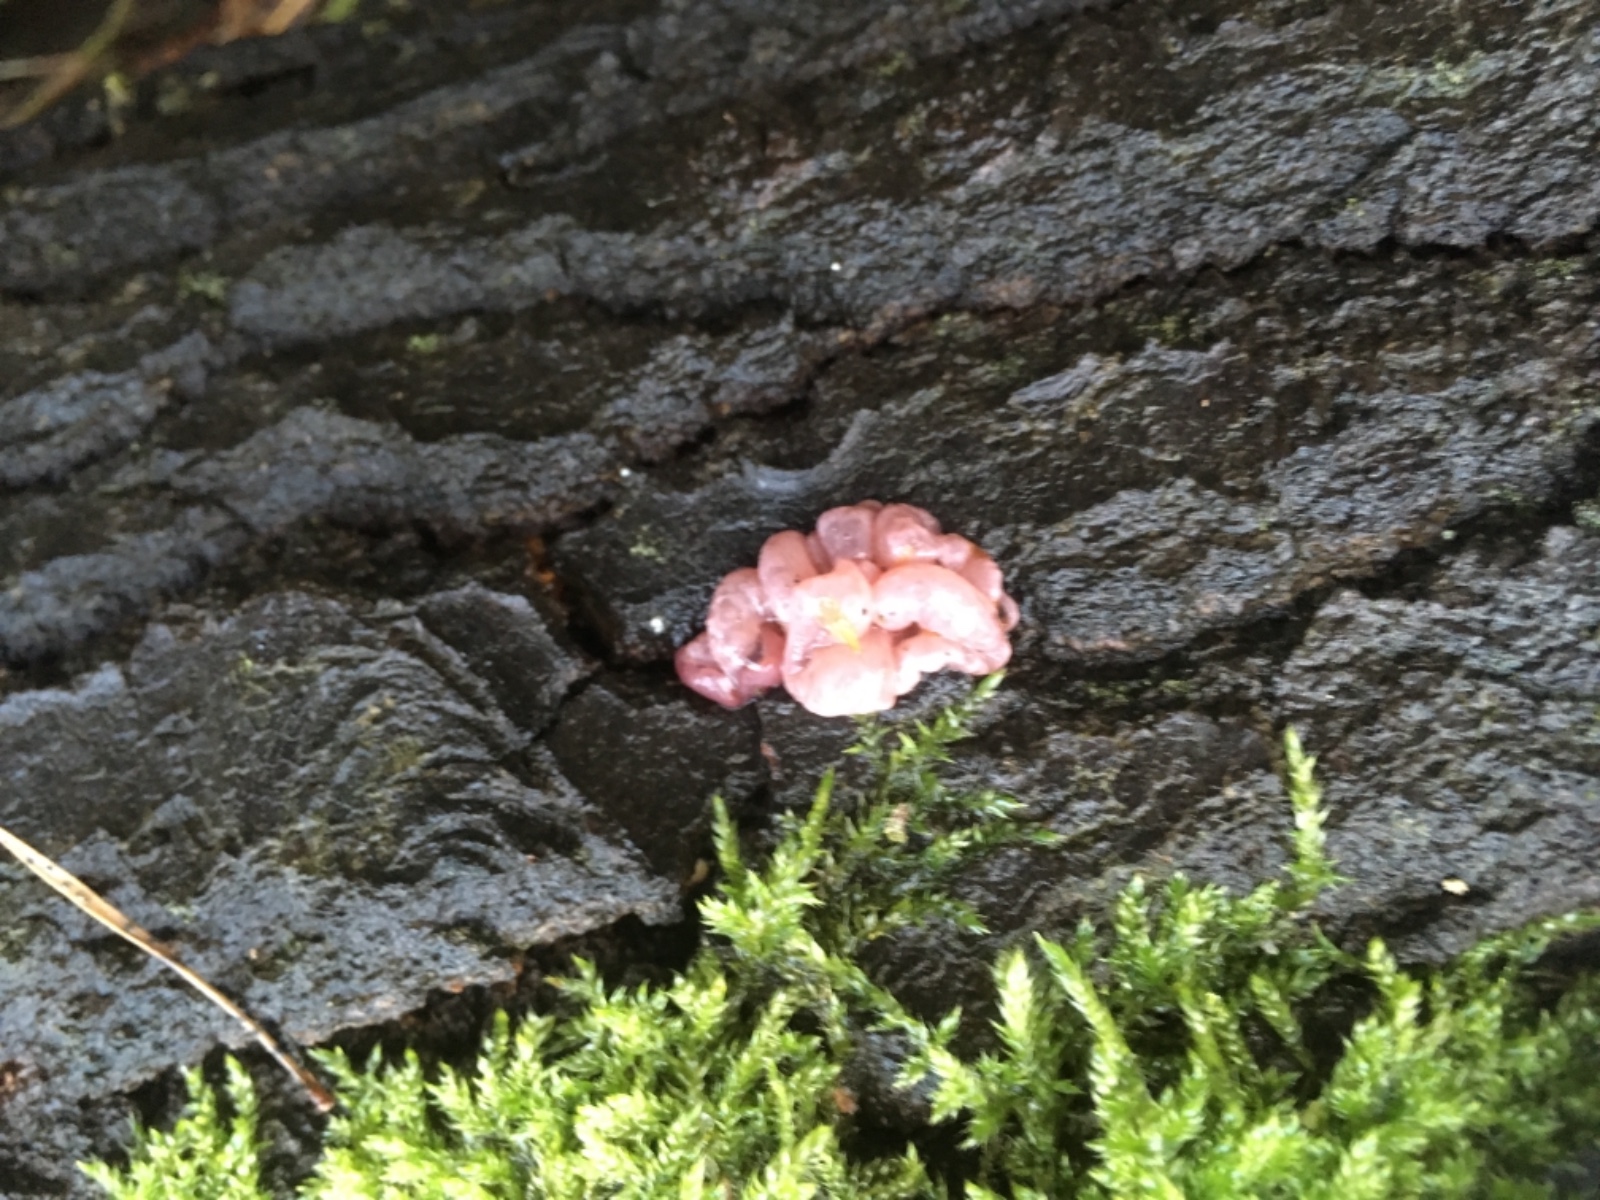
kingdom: Fungi
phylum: Ascomycota
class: Leotiomycetes
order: Helotiales
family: Gelatinodiscaceae
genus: Ascocoryne
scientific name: Ascocoryne sarcoides
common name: rødlilla sejskive
